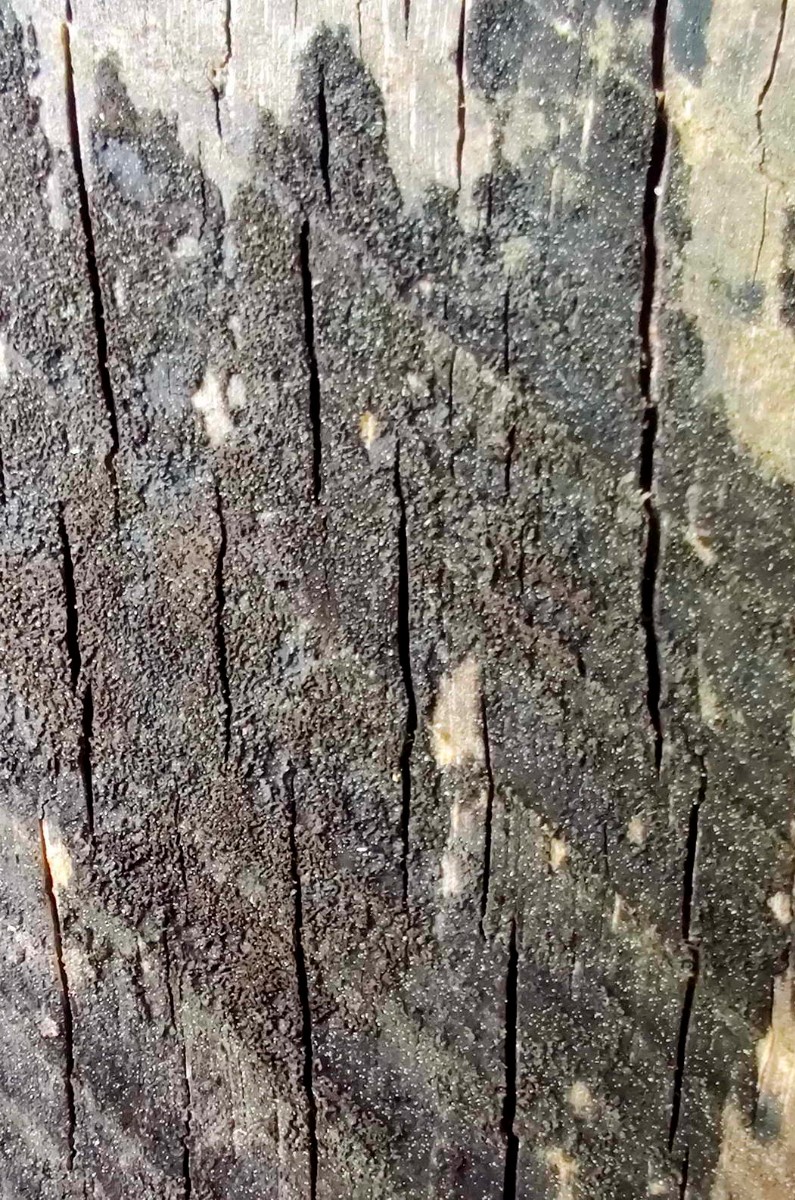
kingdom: Fungi
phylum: Ascomycota
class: Leotiomycetes
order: Helotiales
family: Helotiaceae
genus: Bispora
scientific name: Bispora pallescens
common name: måtte-snitskive
